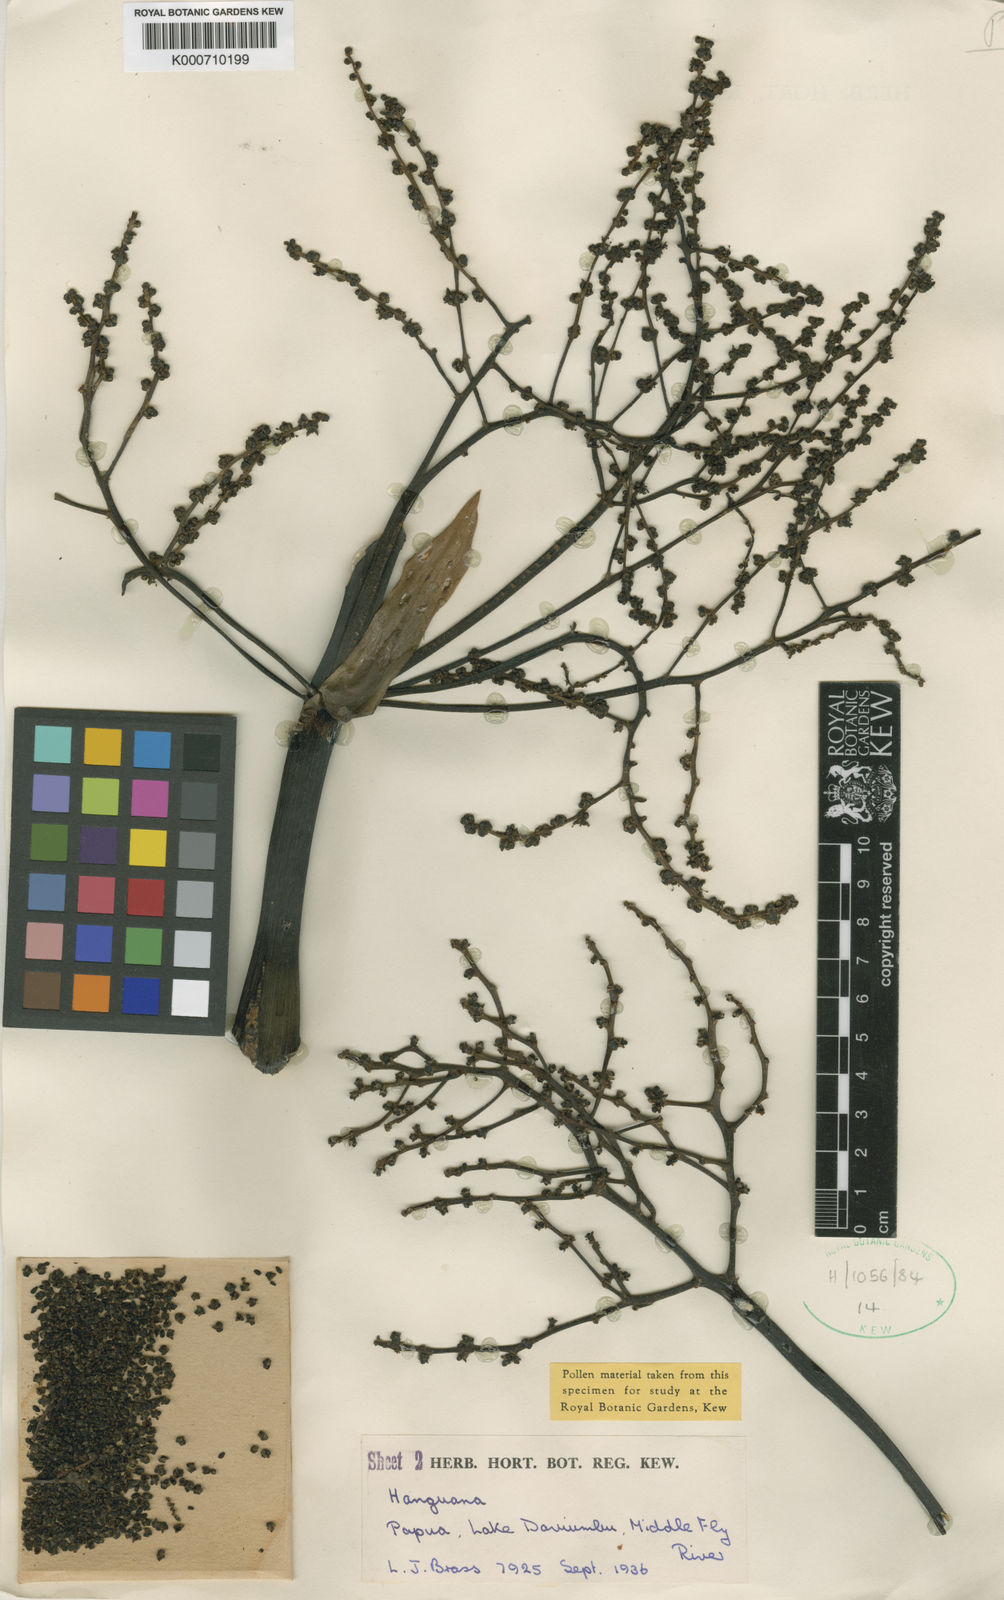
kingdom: Plantae
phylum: Tracheophyta
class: Liliopsida
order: Commelinales
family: Hanguanaceae
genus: Hanguana
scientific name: Hanguana
